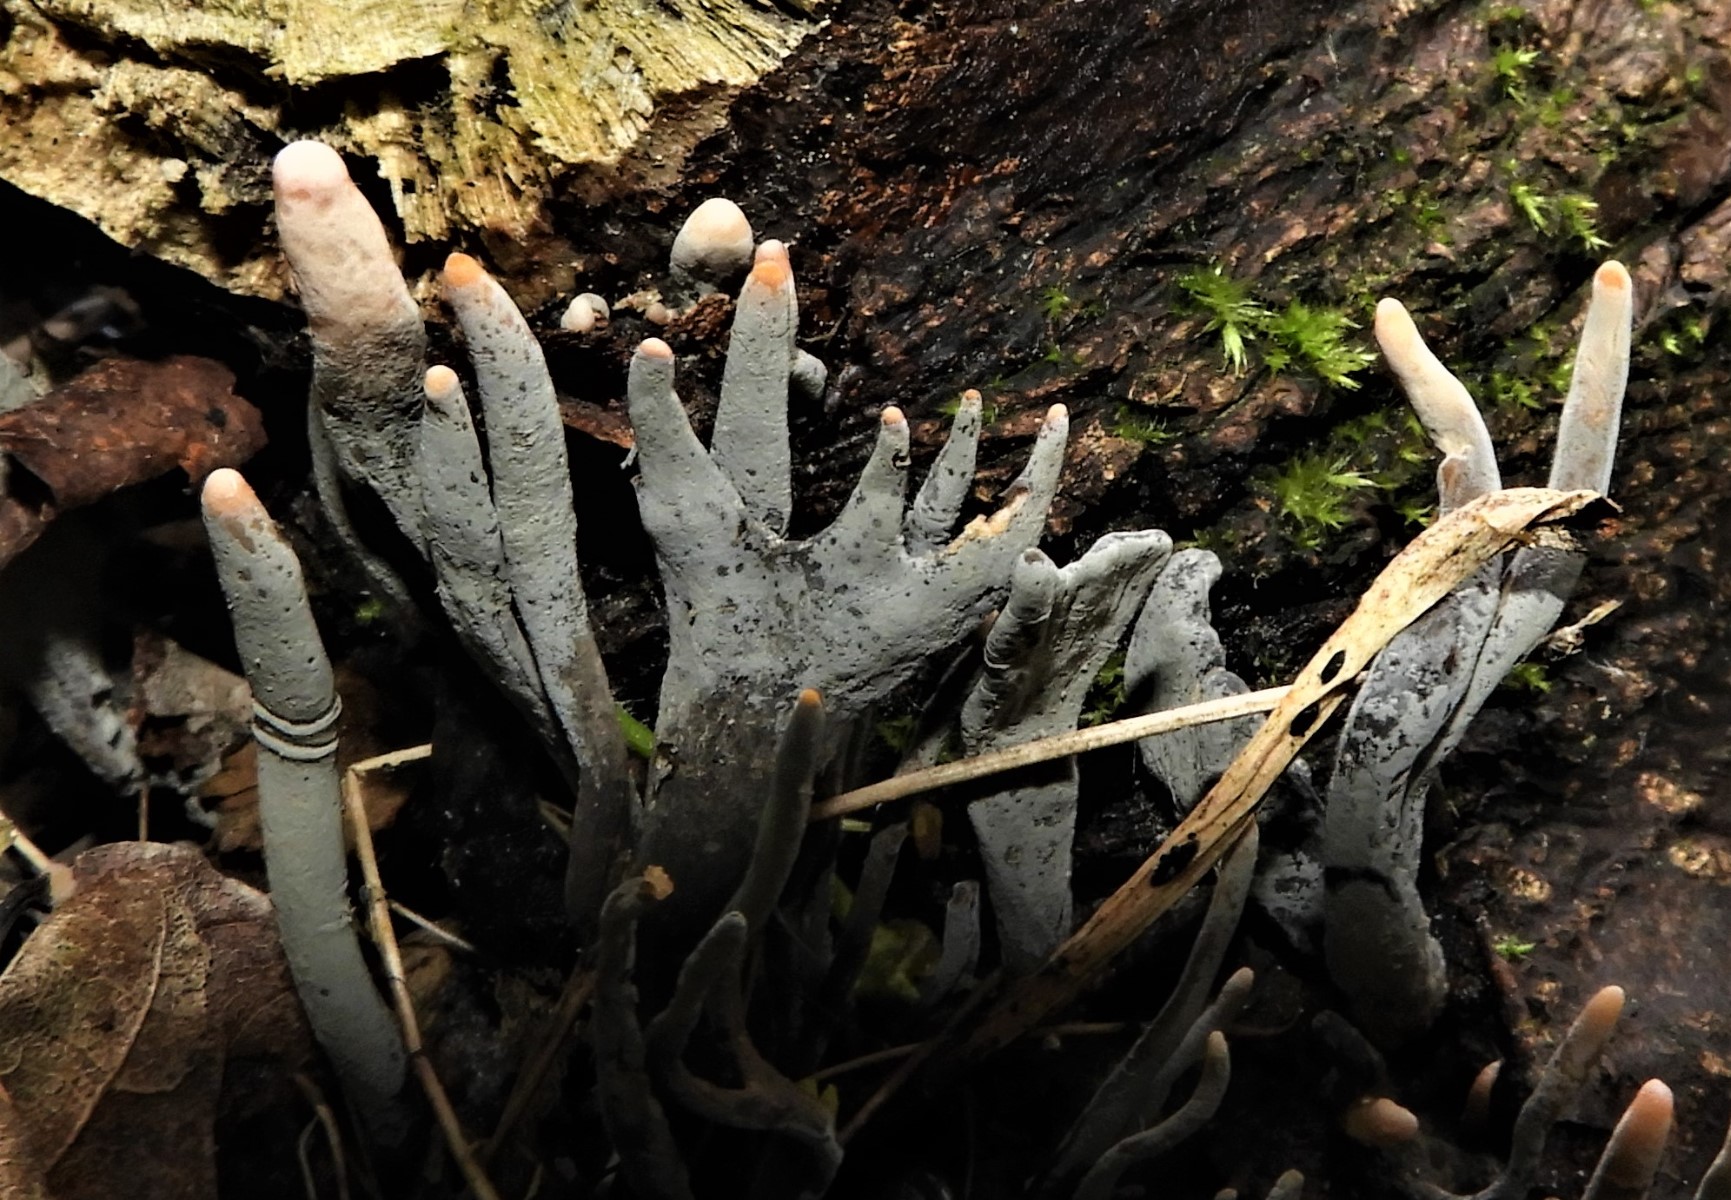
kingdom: Fungi
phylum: Ascomycota
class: Sordariomycetes
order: Xylariales
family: Xylariaceae
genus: Xylaria
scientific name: Xylaria hypoxylon
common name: grenet stødsvamp
